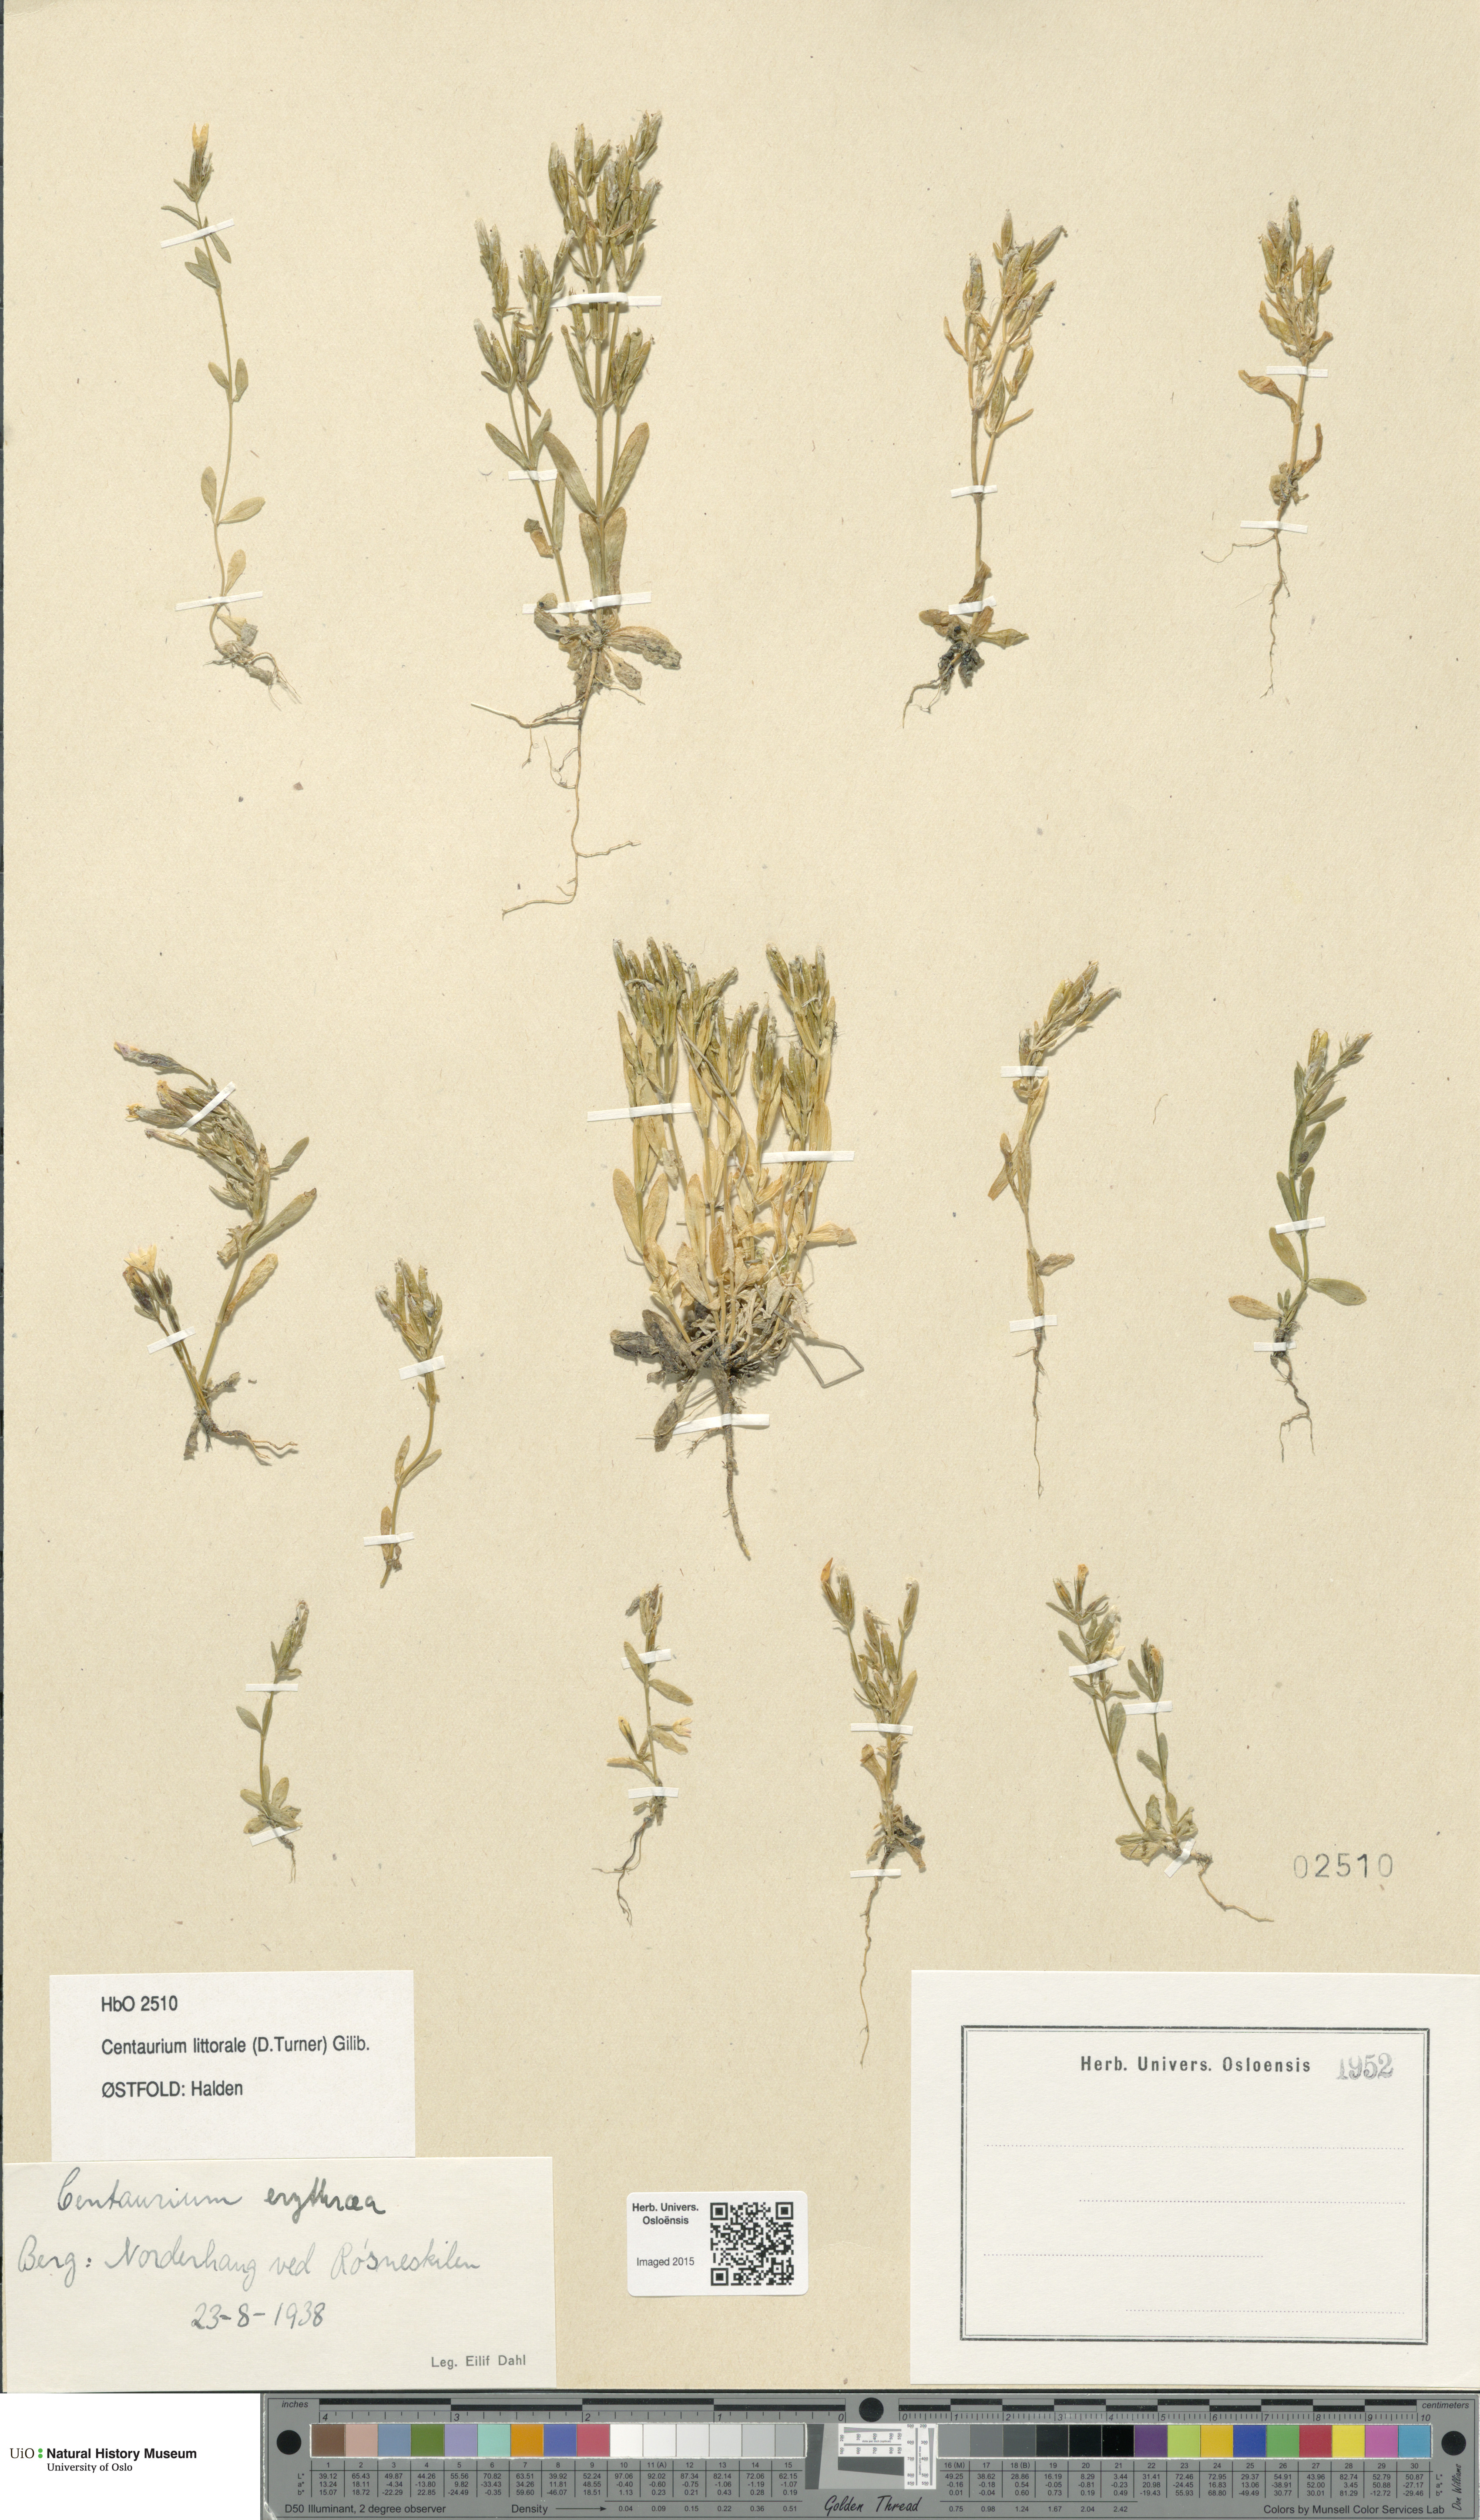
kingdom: Plantae
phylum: Tracheophyta
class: Magnoliopsida
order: Gentianales
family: Gentianaceae
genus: Centaurium
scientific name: Centaurium littorale
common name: Seaside centaury
